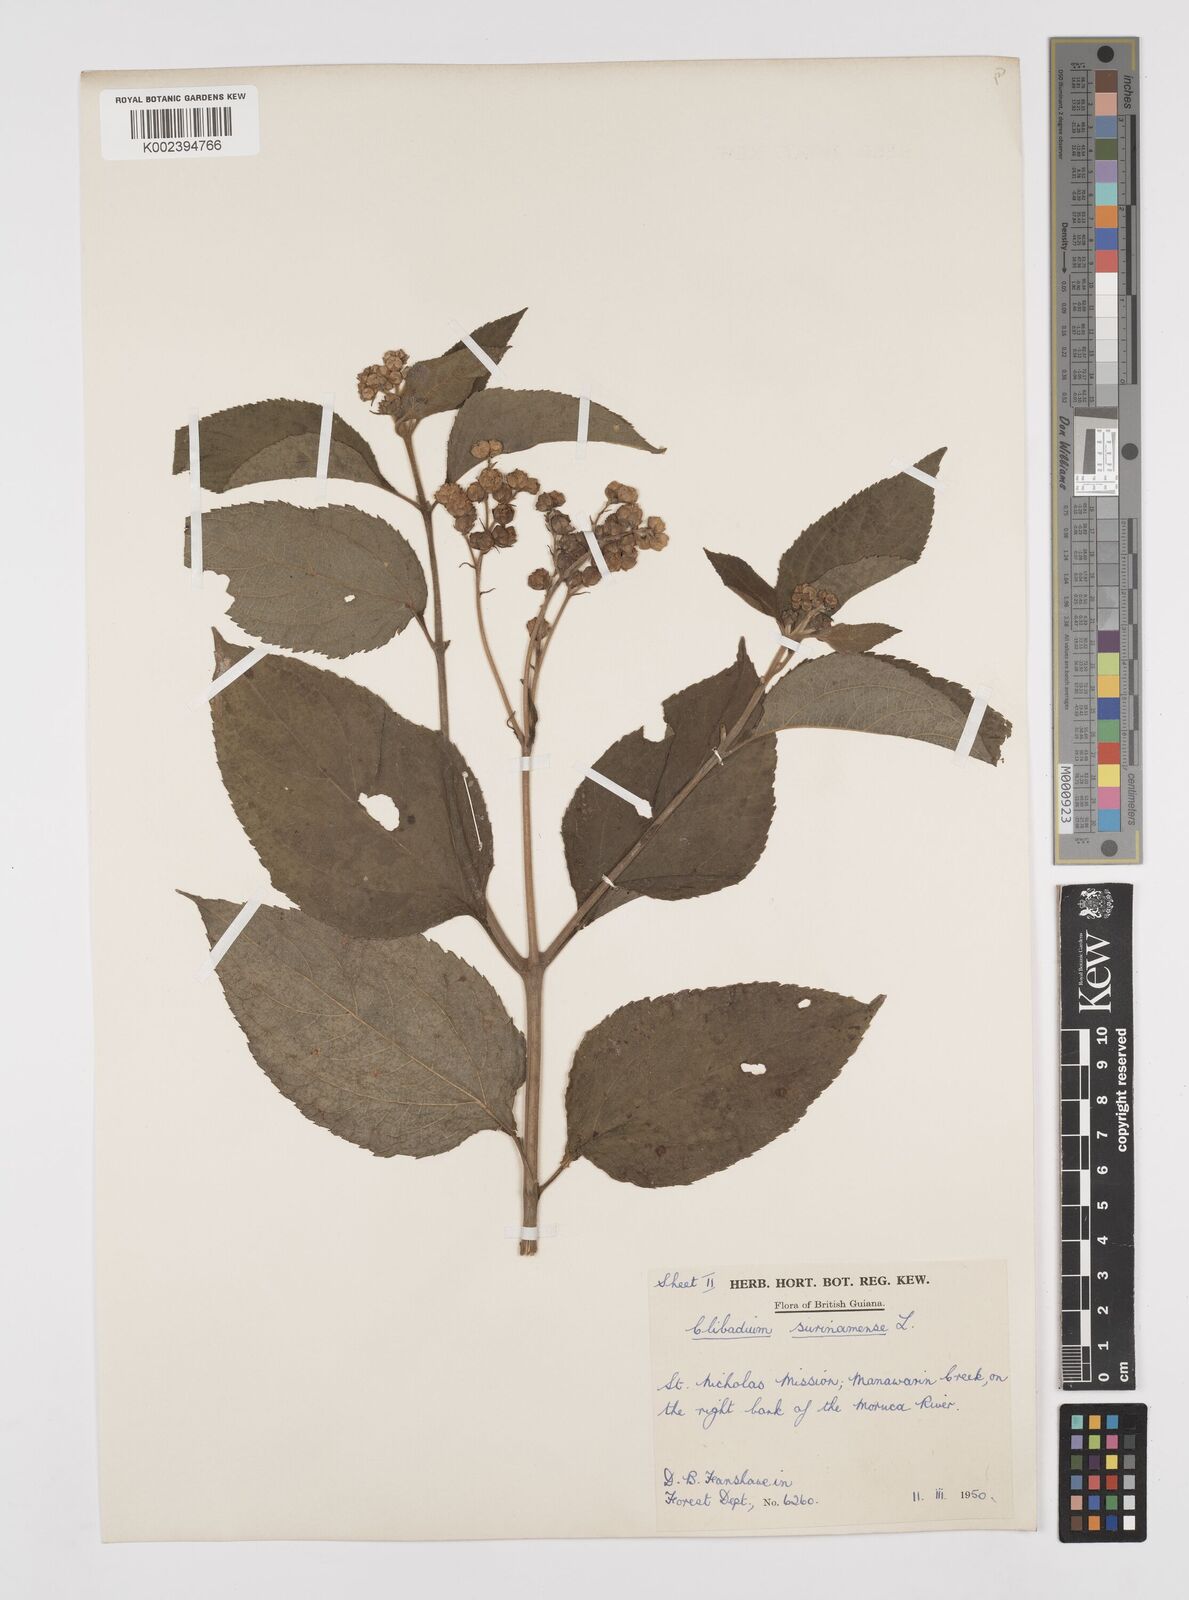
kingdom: Plantae
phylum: Tracheophyta
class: Magnoliopsida
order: Asterales
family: Asteraceae
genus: Clibadium
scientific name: Clibadium surinamense
